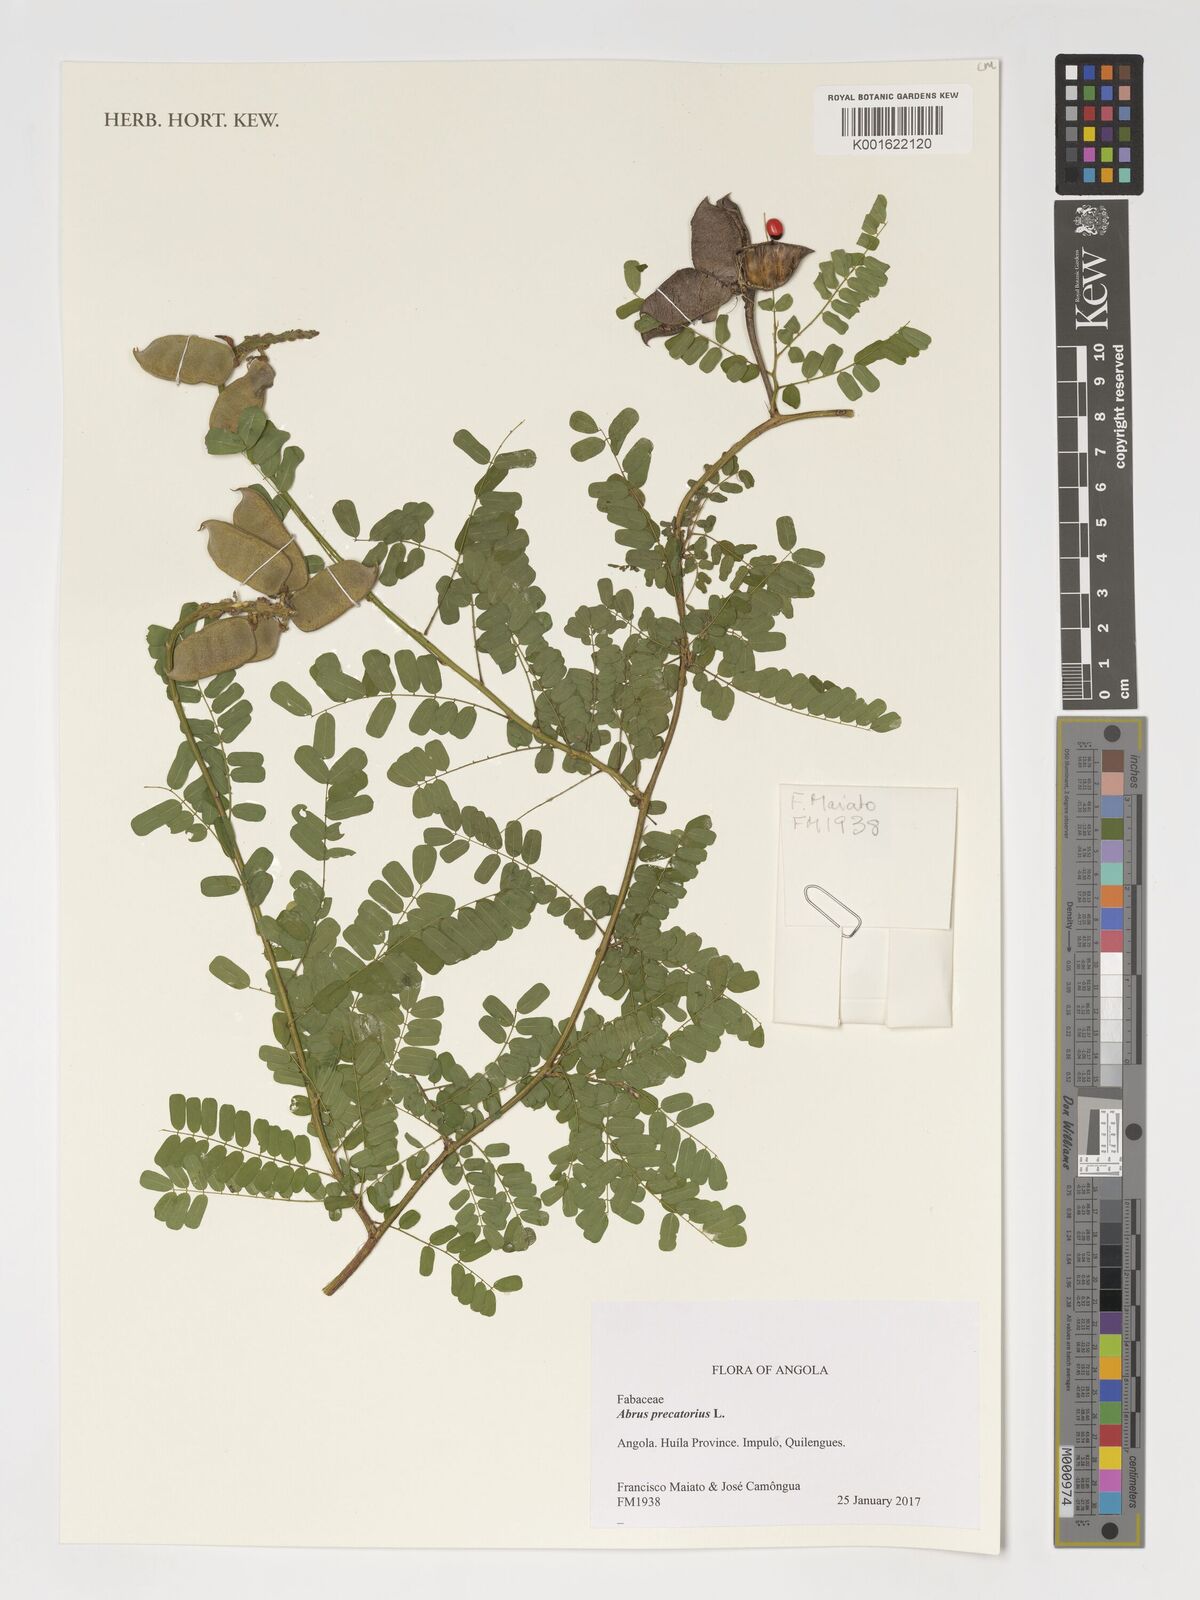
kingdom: Plantae
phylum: Tracheophyta
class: Magnoliopsida
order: Fabales
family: Fabaceae
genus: Abrus
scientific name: Abrus precatorius
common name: Rosarypea
